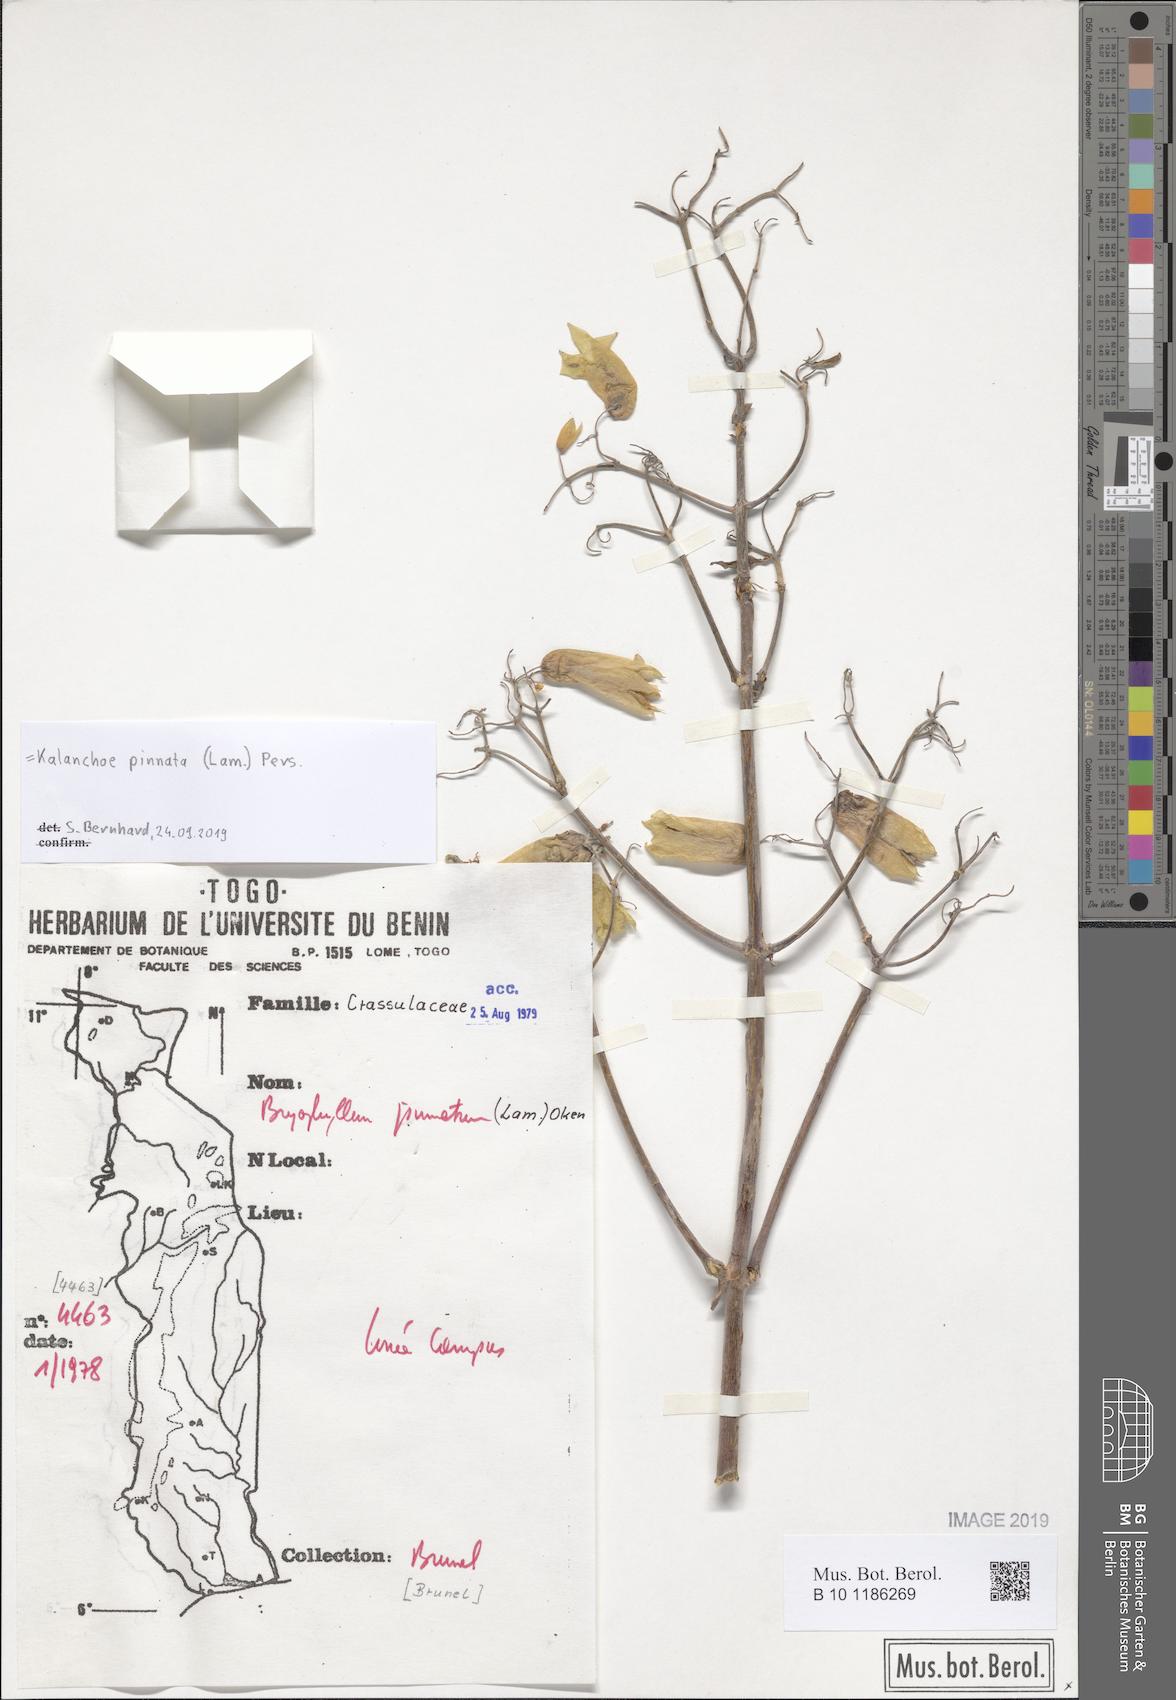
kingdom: Plantae
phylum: Tracheophyta
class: Magnoliopsida
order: Saxifragales
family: Crassulaceae
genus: Kalanchoe
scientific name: Kalanchoe pinnata
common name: Cathedral bells
